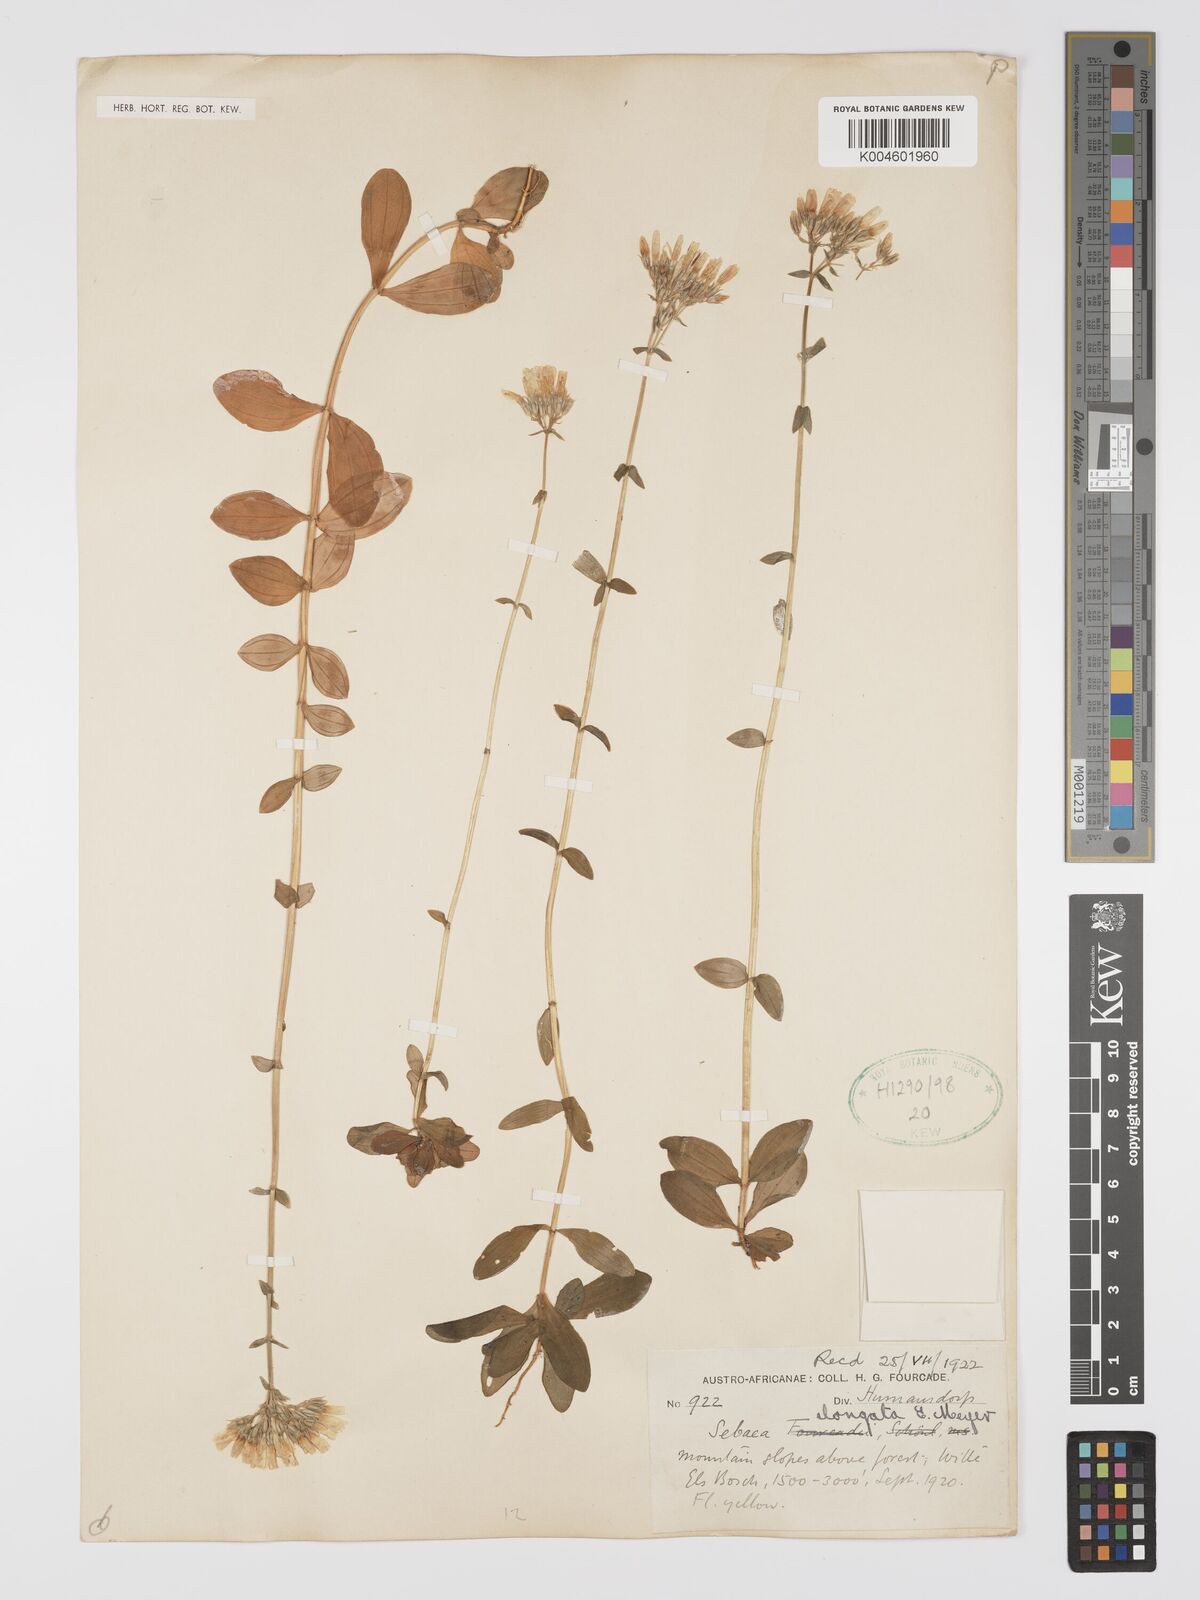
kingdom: Plantae
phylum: Tracheophyta
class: Magnoliopsida
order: Gentianales
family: Gentianaceae
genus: Sebaea
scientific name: Sebaea elongata
